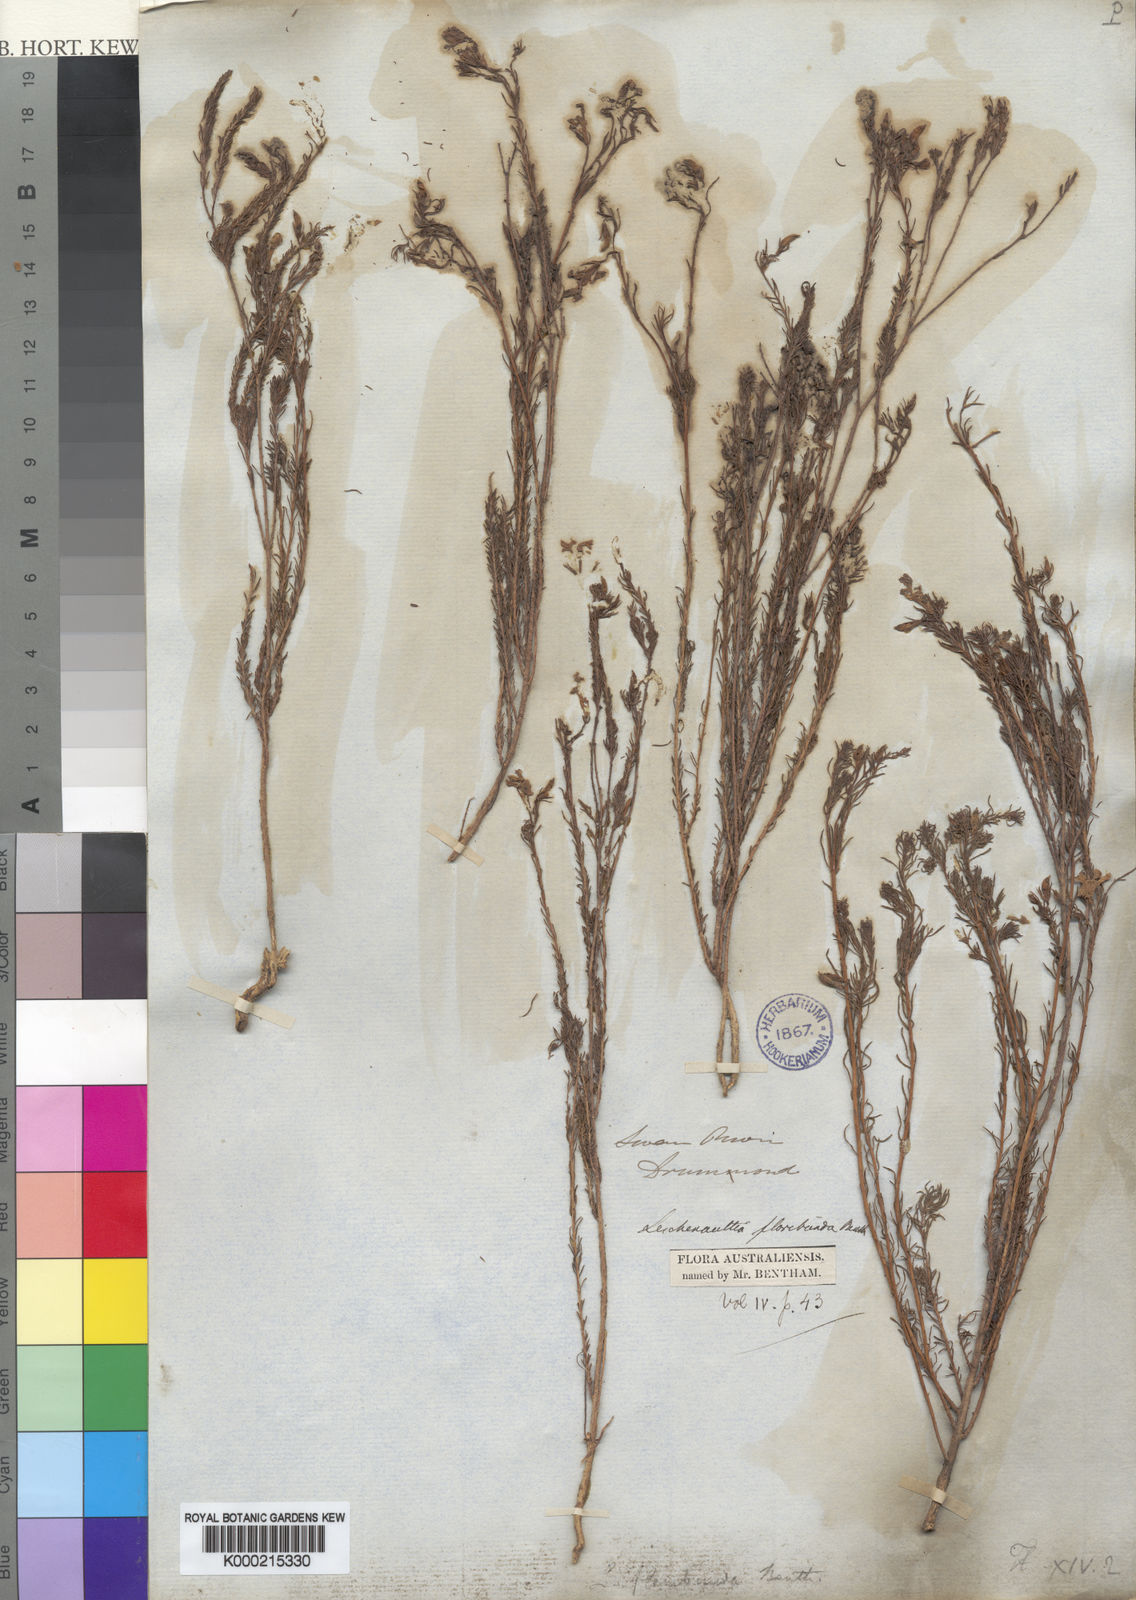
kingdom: Plantae
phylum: Tracheophyta
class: Magnoliopsida
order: Asterales
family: Goodeniaceae
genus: Leschenaultia
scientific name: Leschenaultia floribunda
